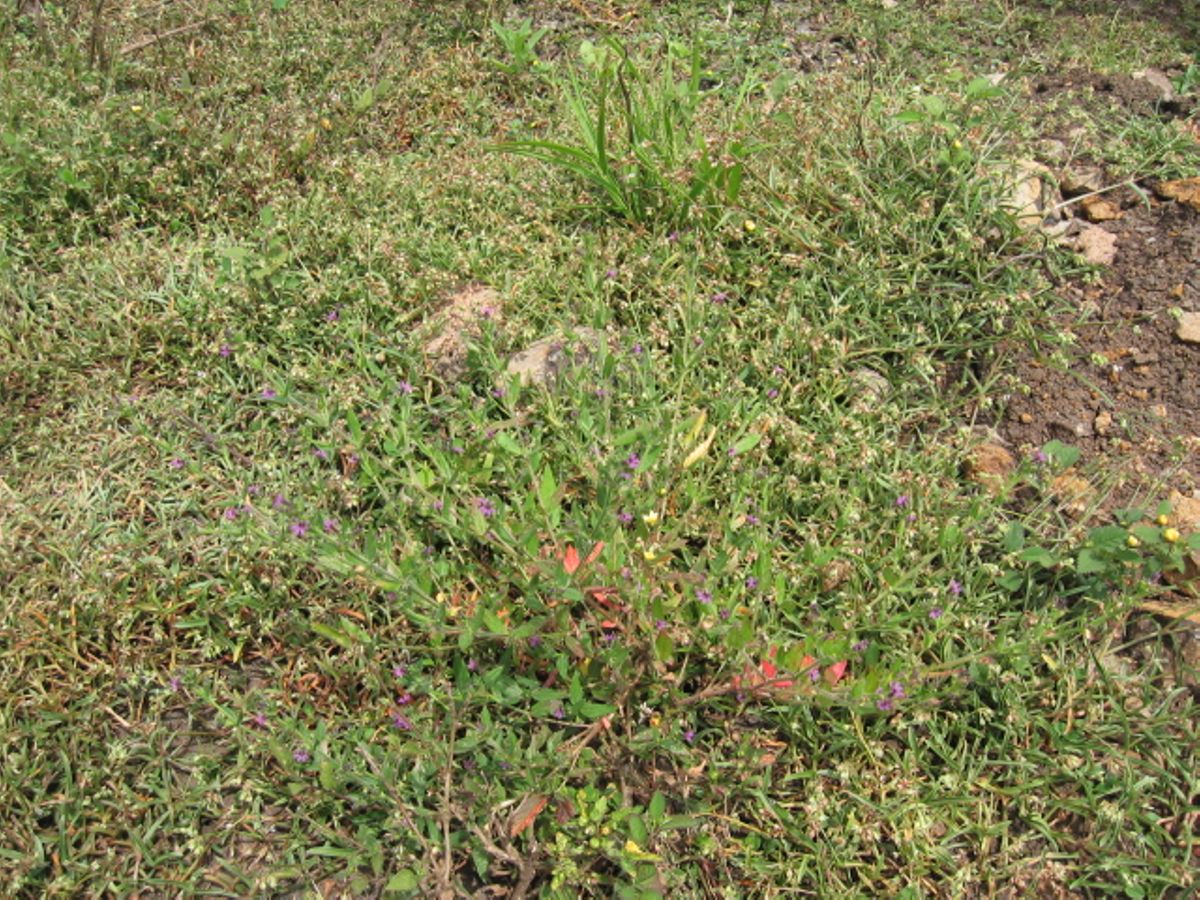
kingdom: Plantae
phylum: Tracheophyta
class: Magnoliopsida
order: Myrtales
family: Lythraceae
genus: Cuphea
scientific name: Cuphea carthagenensis
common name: Colombian waxweed
